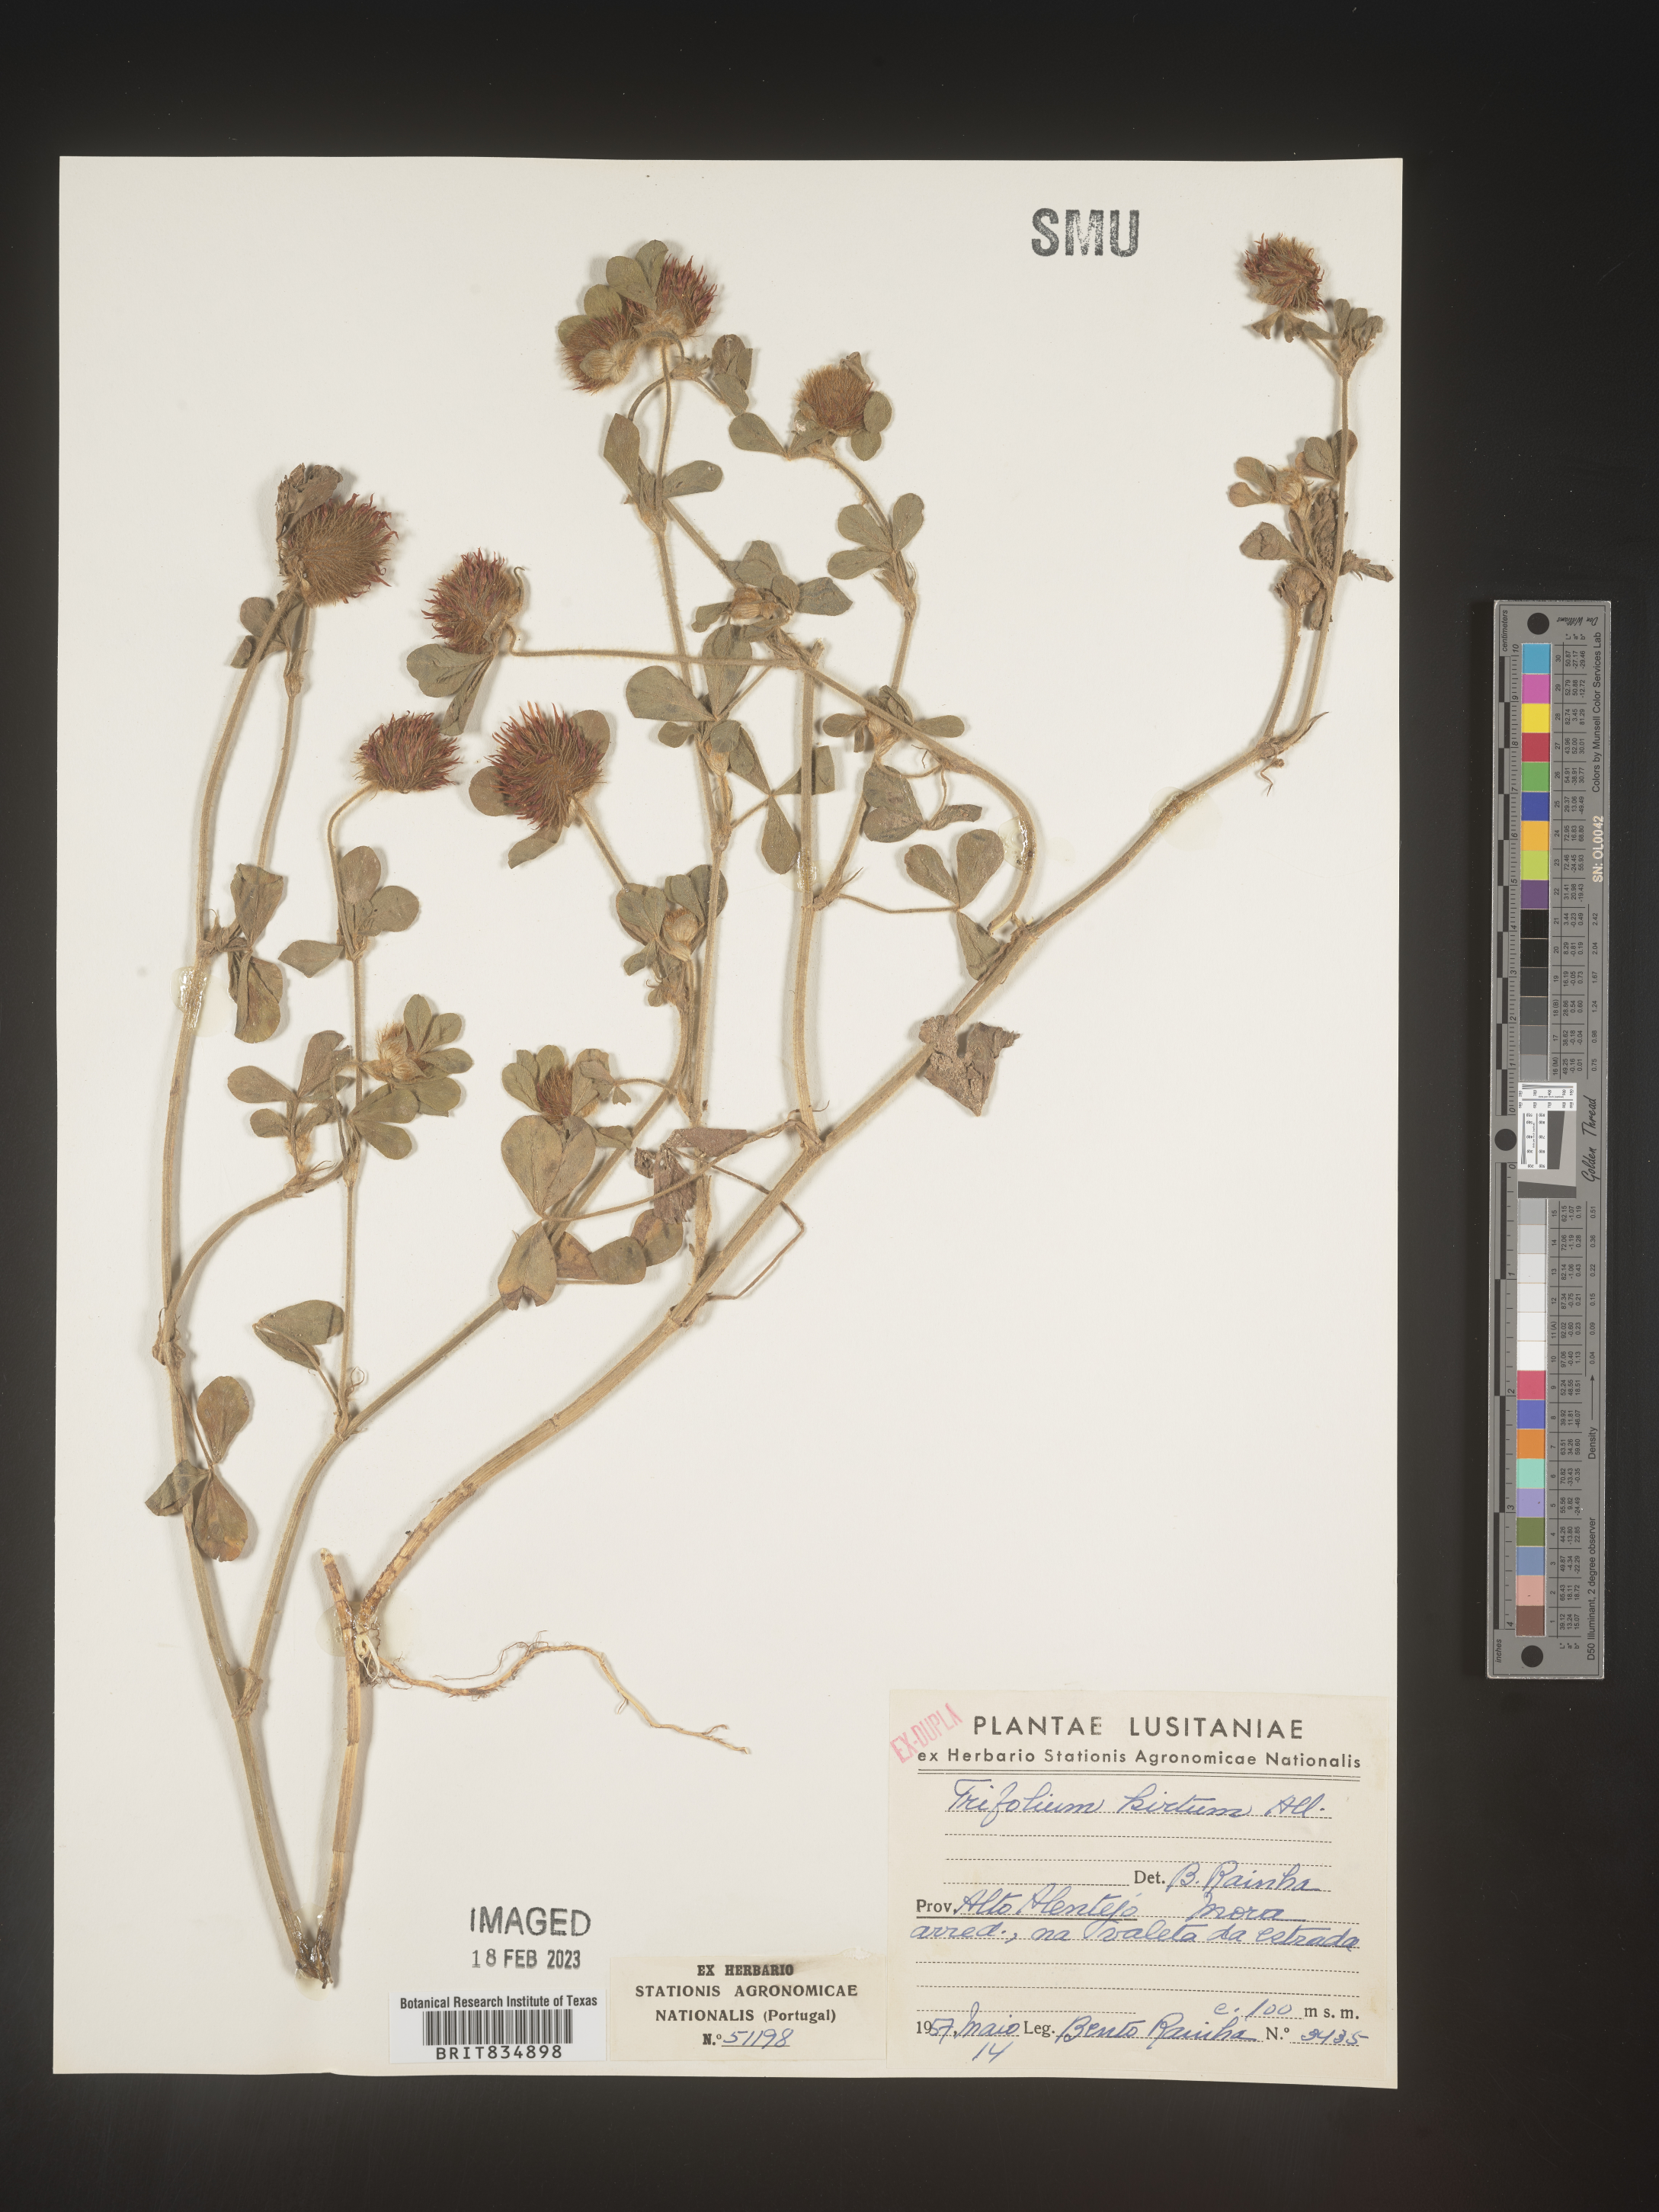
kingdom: Plantae
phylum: Tracheophyta
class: Magnoliopsida
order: Fabales
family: Fabaceae
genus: Trifolium
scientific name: Trifolium
